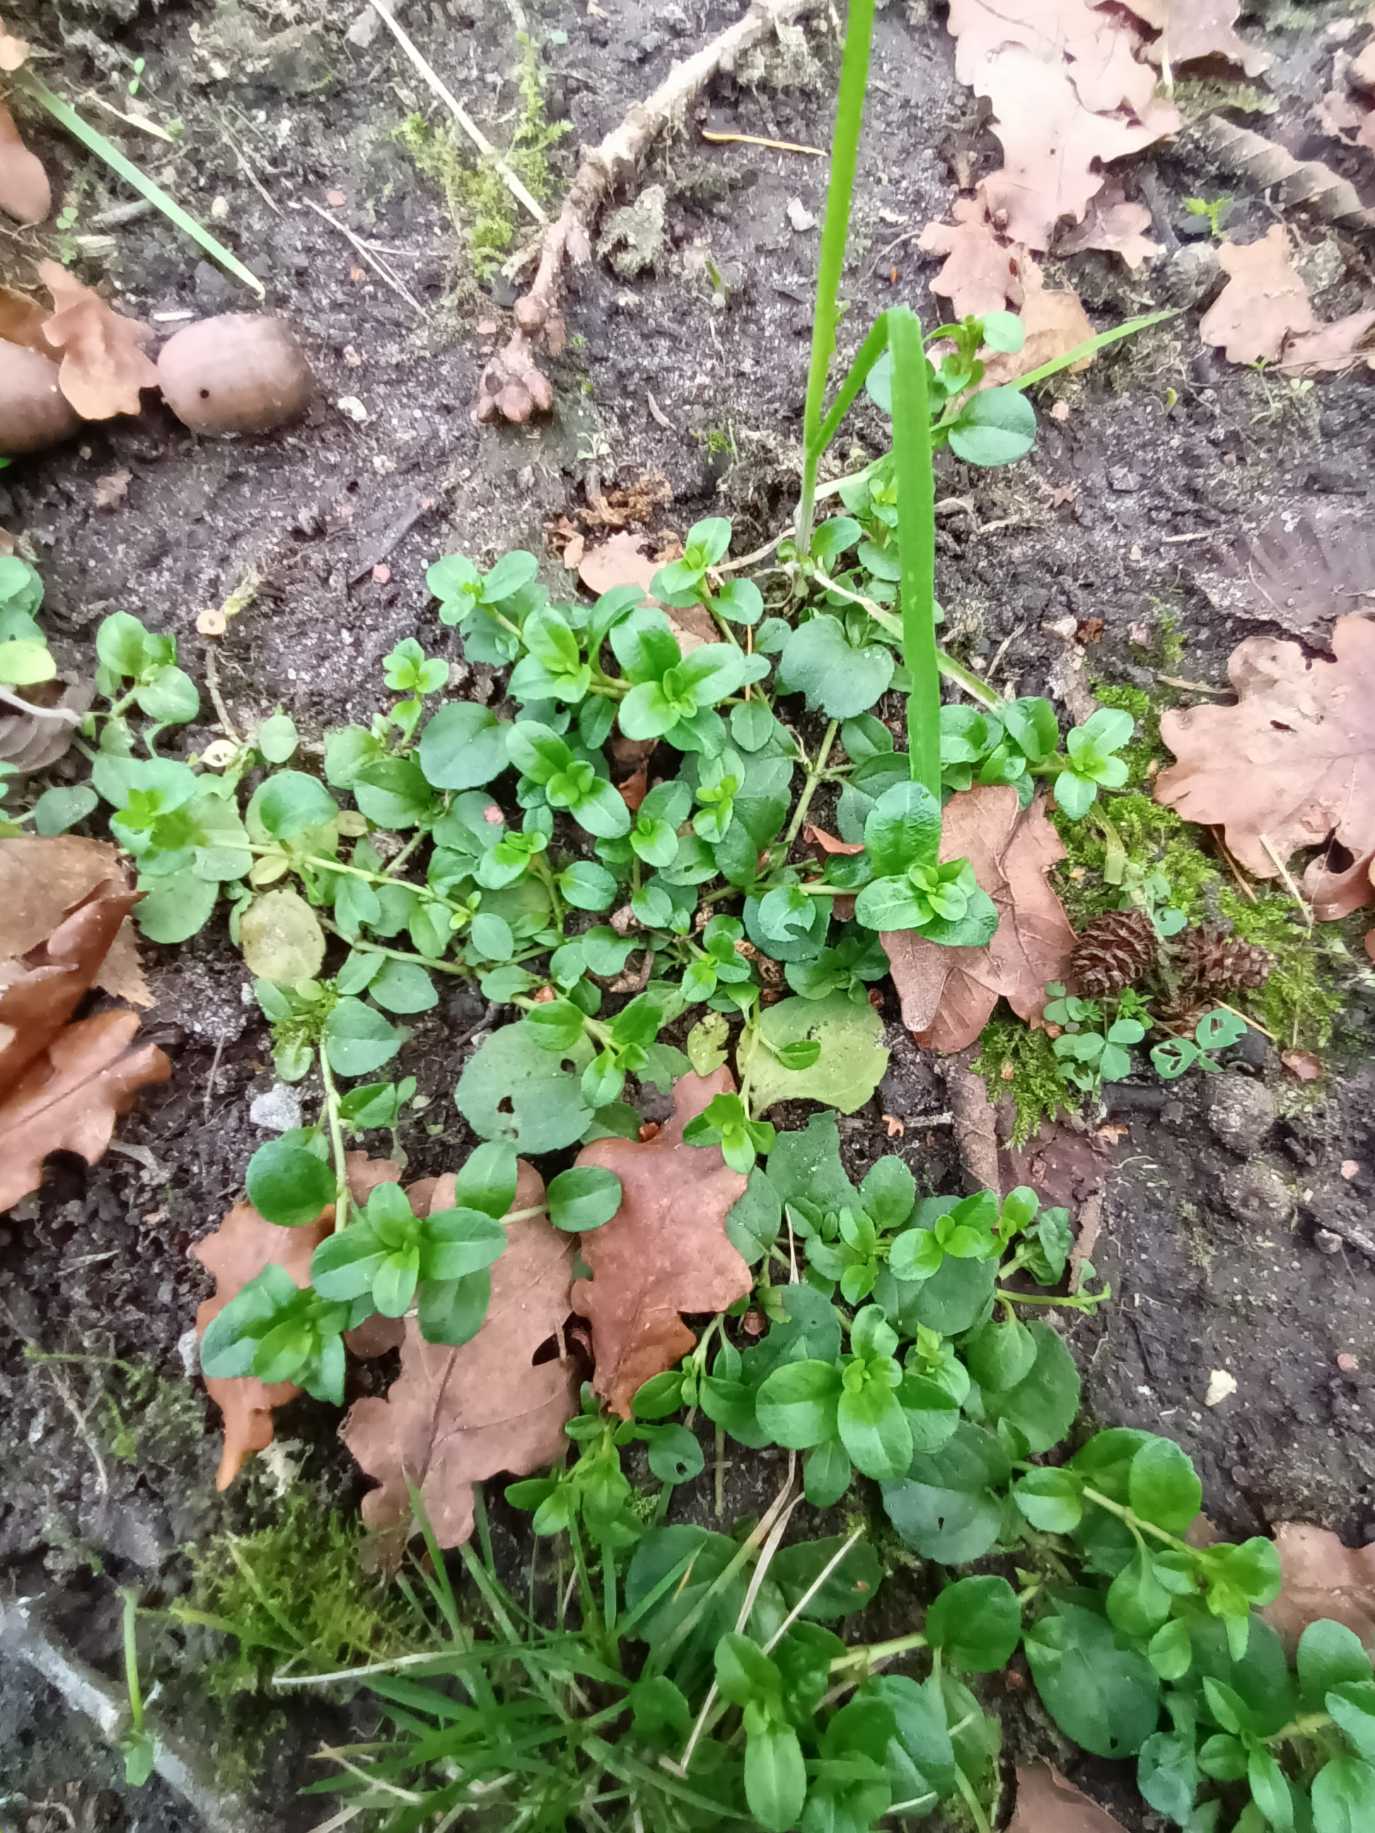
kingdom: Plantae
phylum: Tracheophyta
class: Magnoliopsida
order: Lamiales
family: Plantaginaceae
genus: Veronica
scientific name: Veronica serpyllifolia
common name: Glat ærenpris
